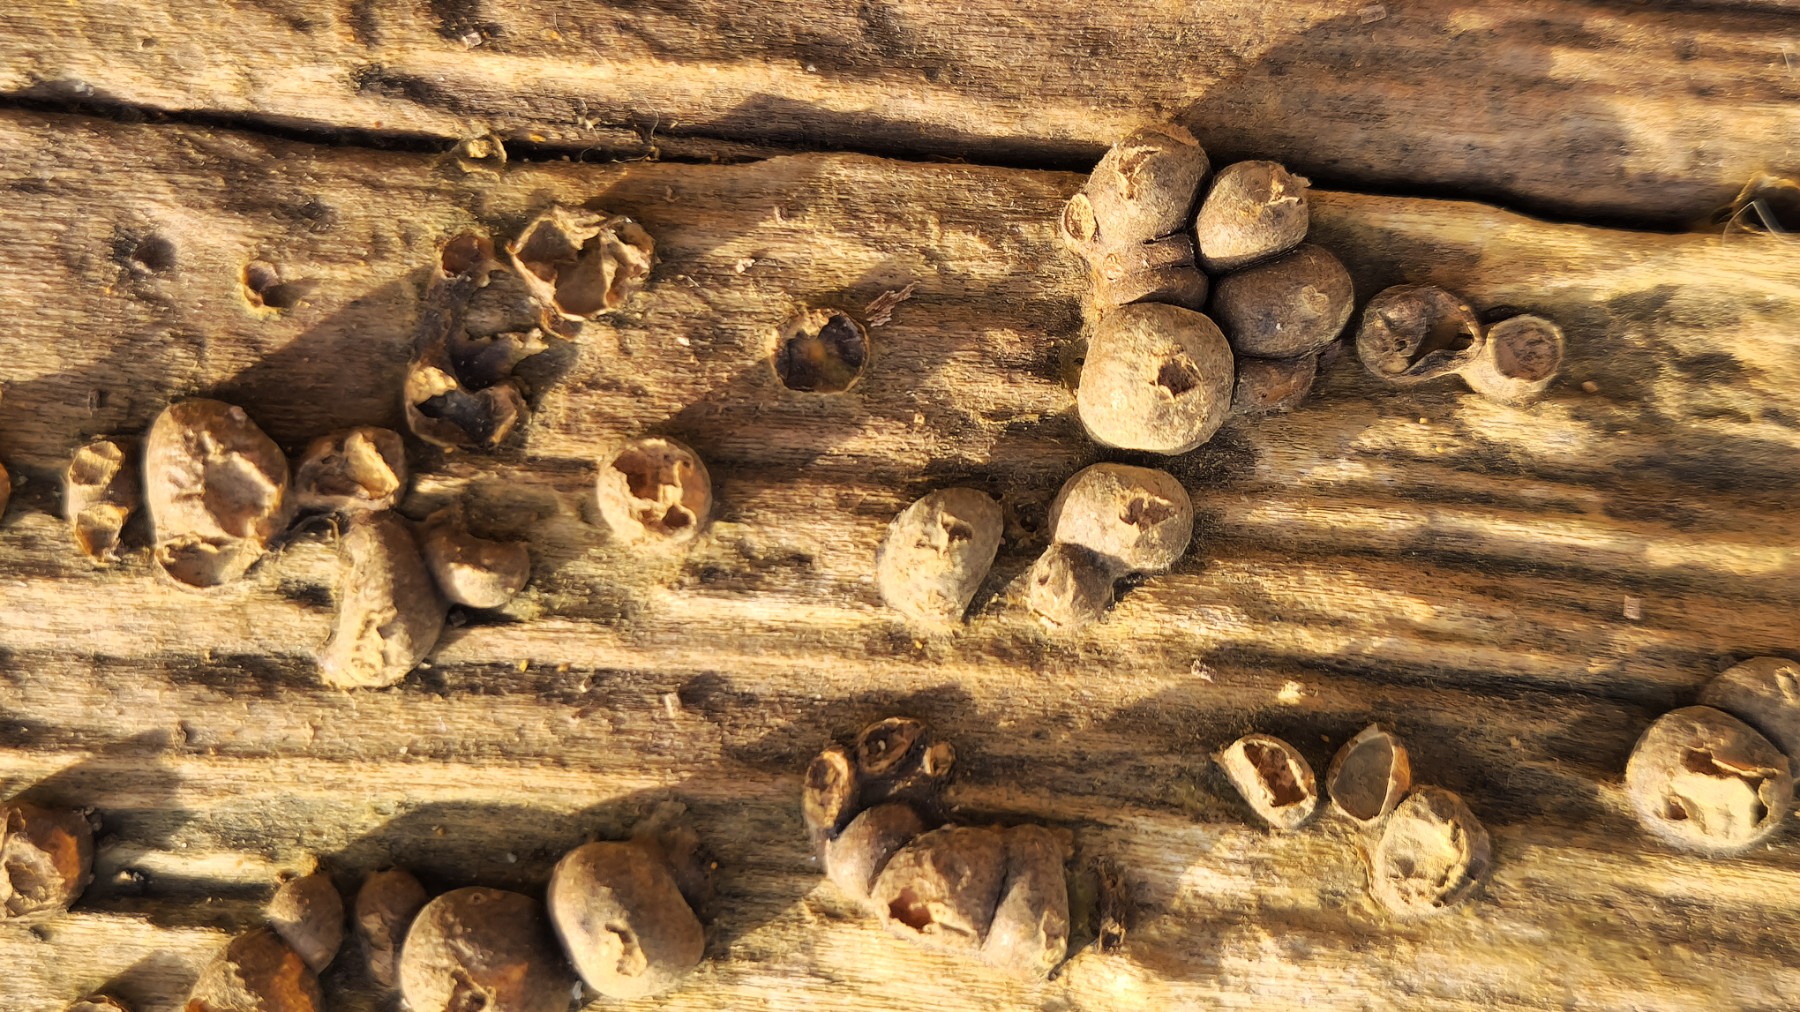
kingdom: Protozoa
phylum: Mycetozoa
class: Myxomycetes
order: Cribrariales
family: Tubiferaceae
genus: Lycogala
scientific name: Lycogala epidendrum
